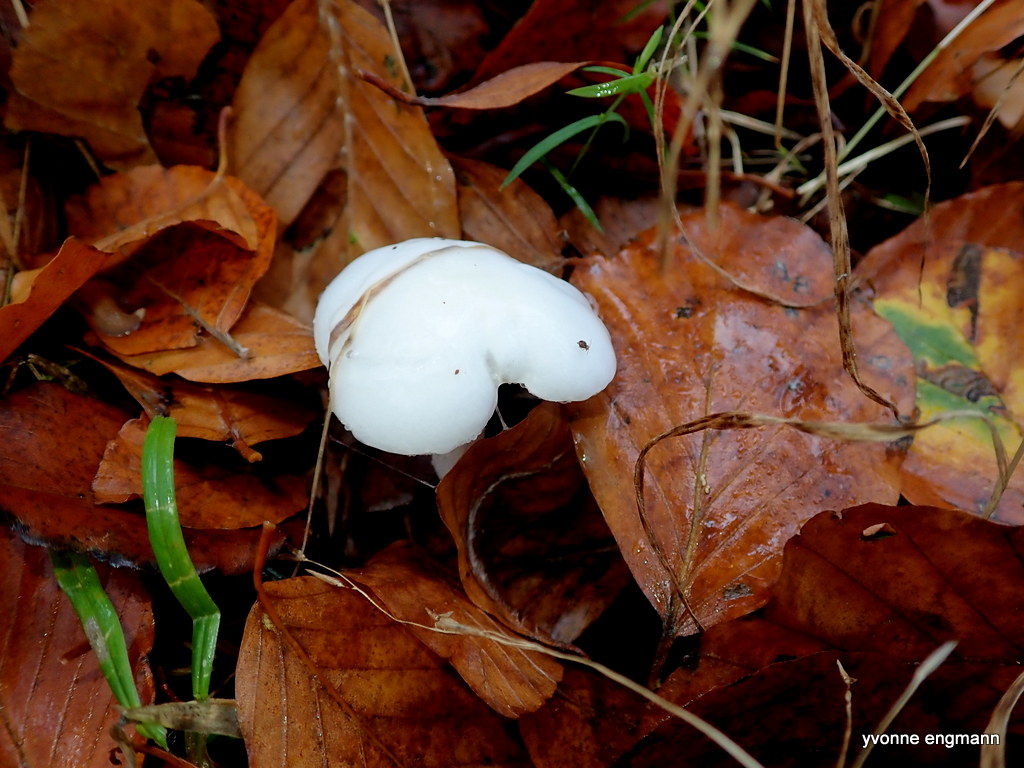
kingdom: Fungi
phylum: Basidiomycota
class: Agaricomycetes
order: Agaricales
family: Hygrophoraceae
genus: Hygrophorus
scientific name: Hygrophorus
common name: sneglehat
